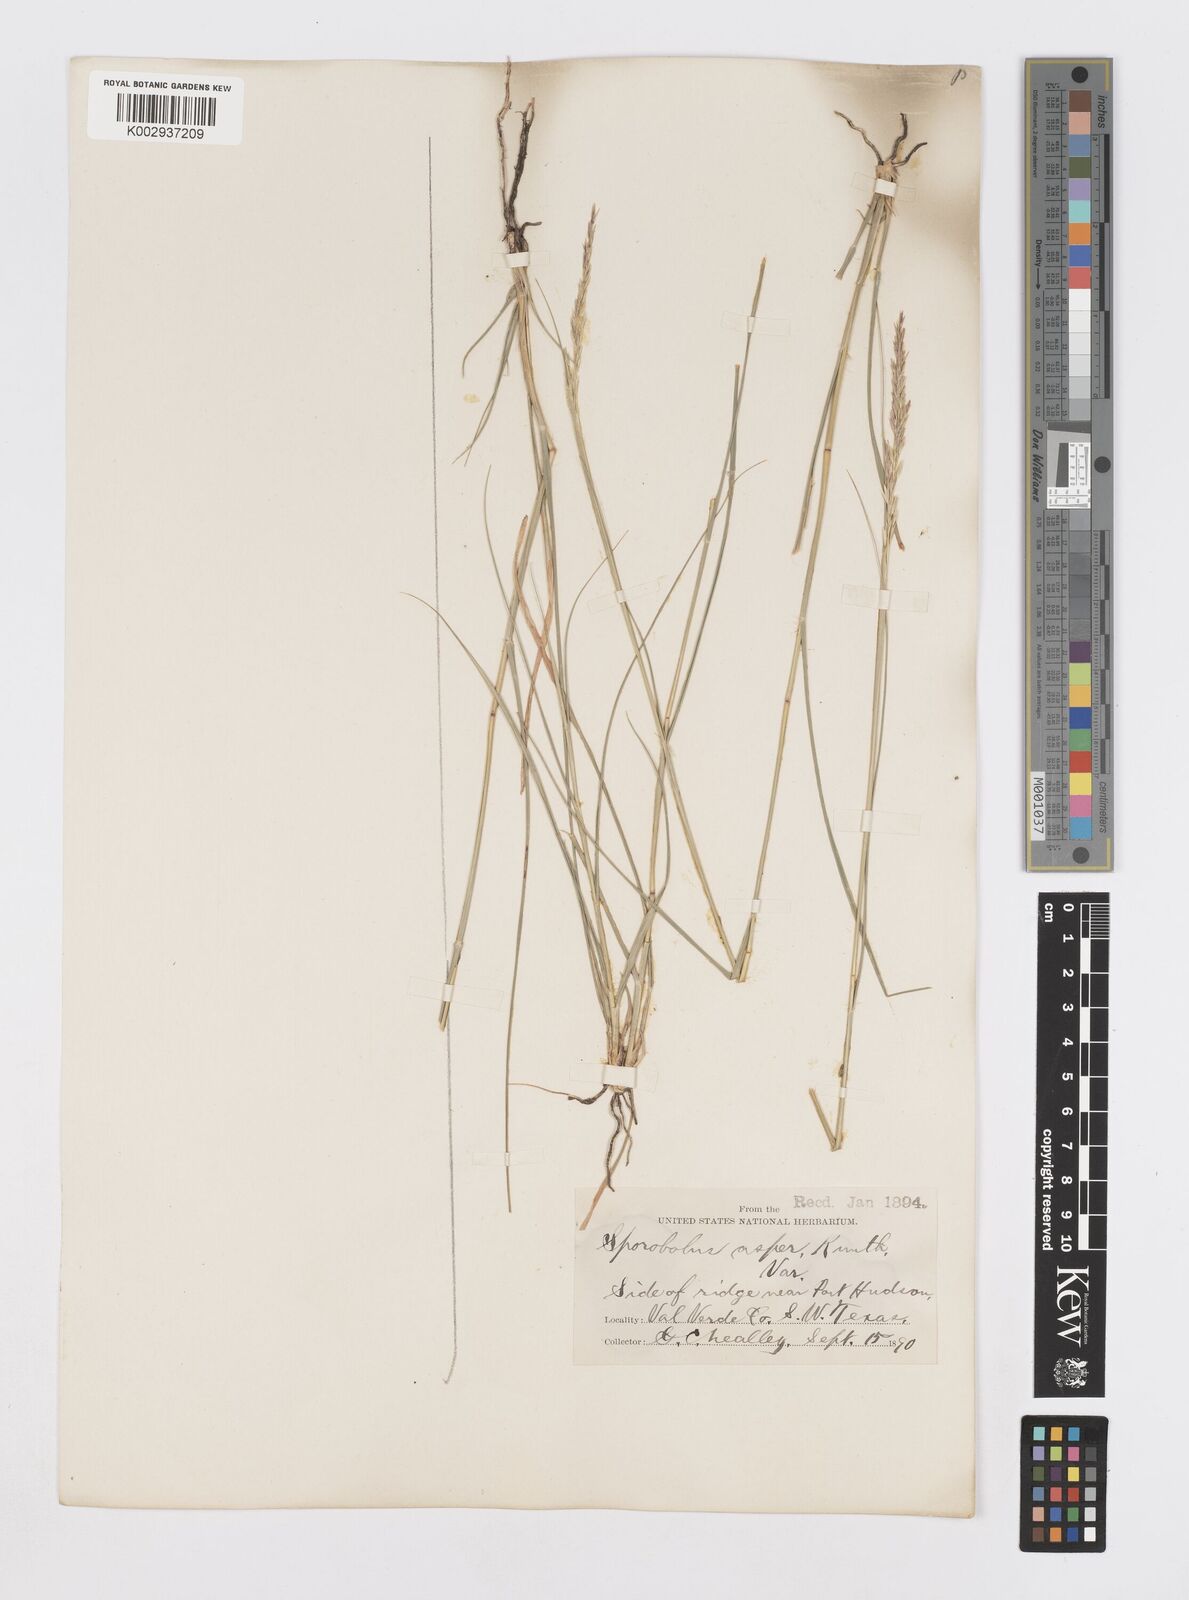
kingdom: Plantae
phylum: Tracheophyta
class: Liliopsida
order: Poales
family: Poaceae
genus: Sporobolus
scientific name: Sporobolus compositus
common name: Rough dropseed
